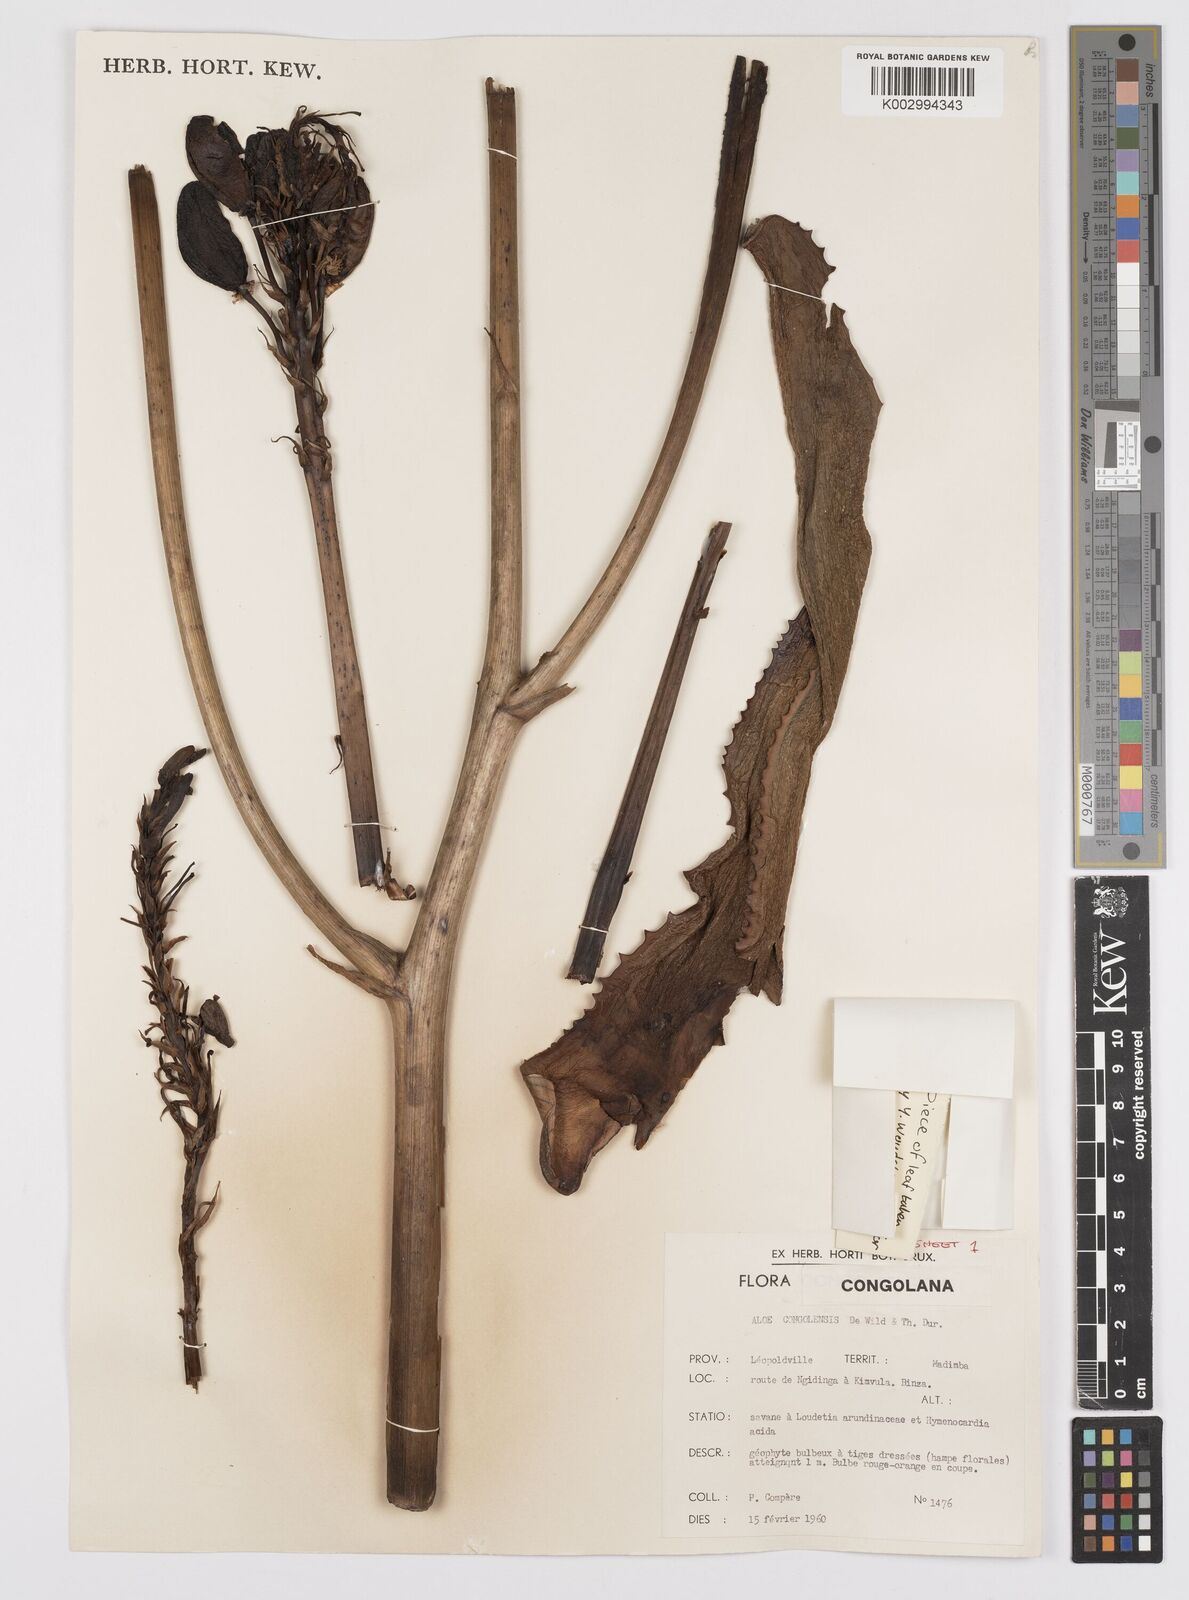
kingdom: Plantae
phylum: Tracheophyta
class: Liliopsida
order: Asparagales
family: Asphodelaceae
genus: Aloe
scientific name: Aloe buettneri
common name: West african aloe
